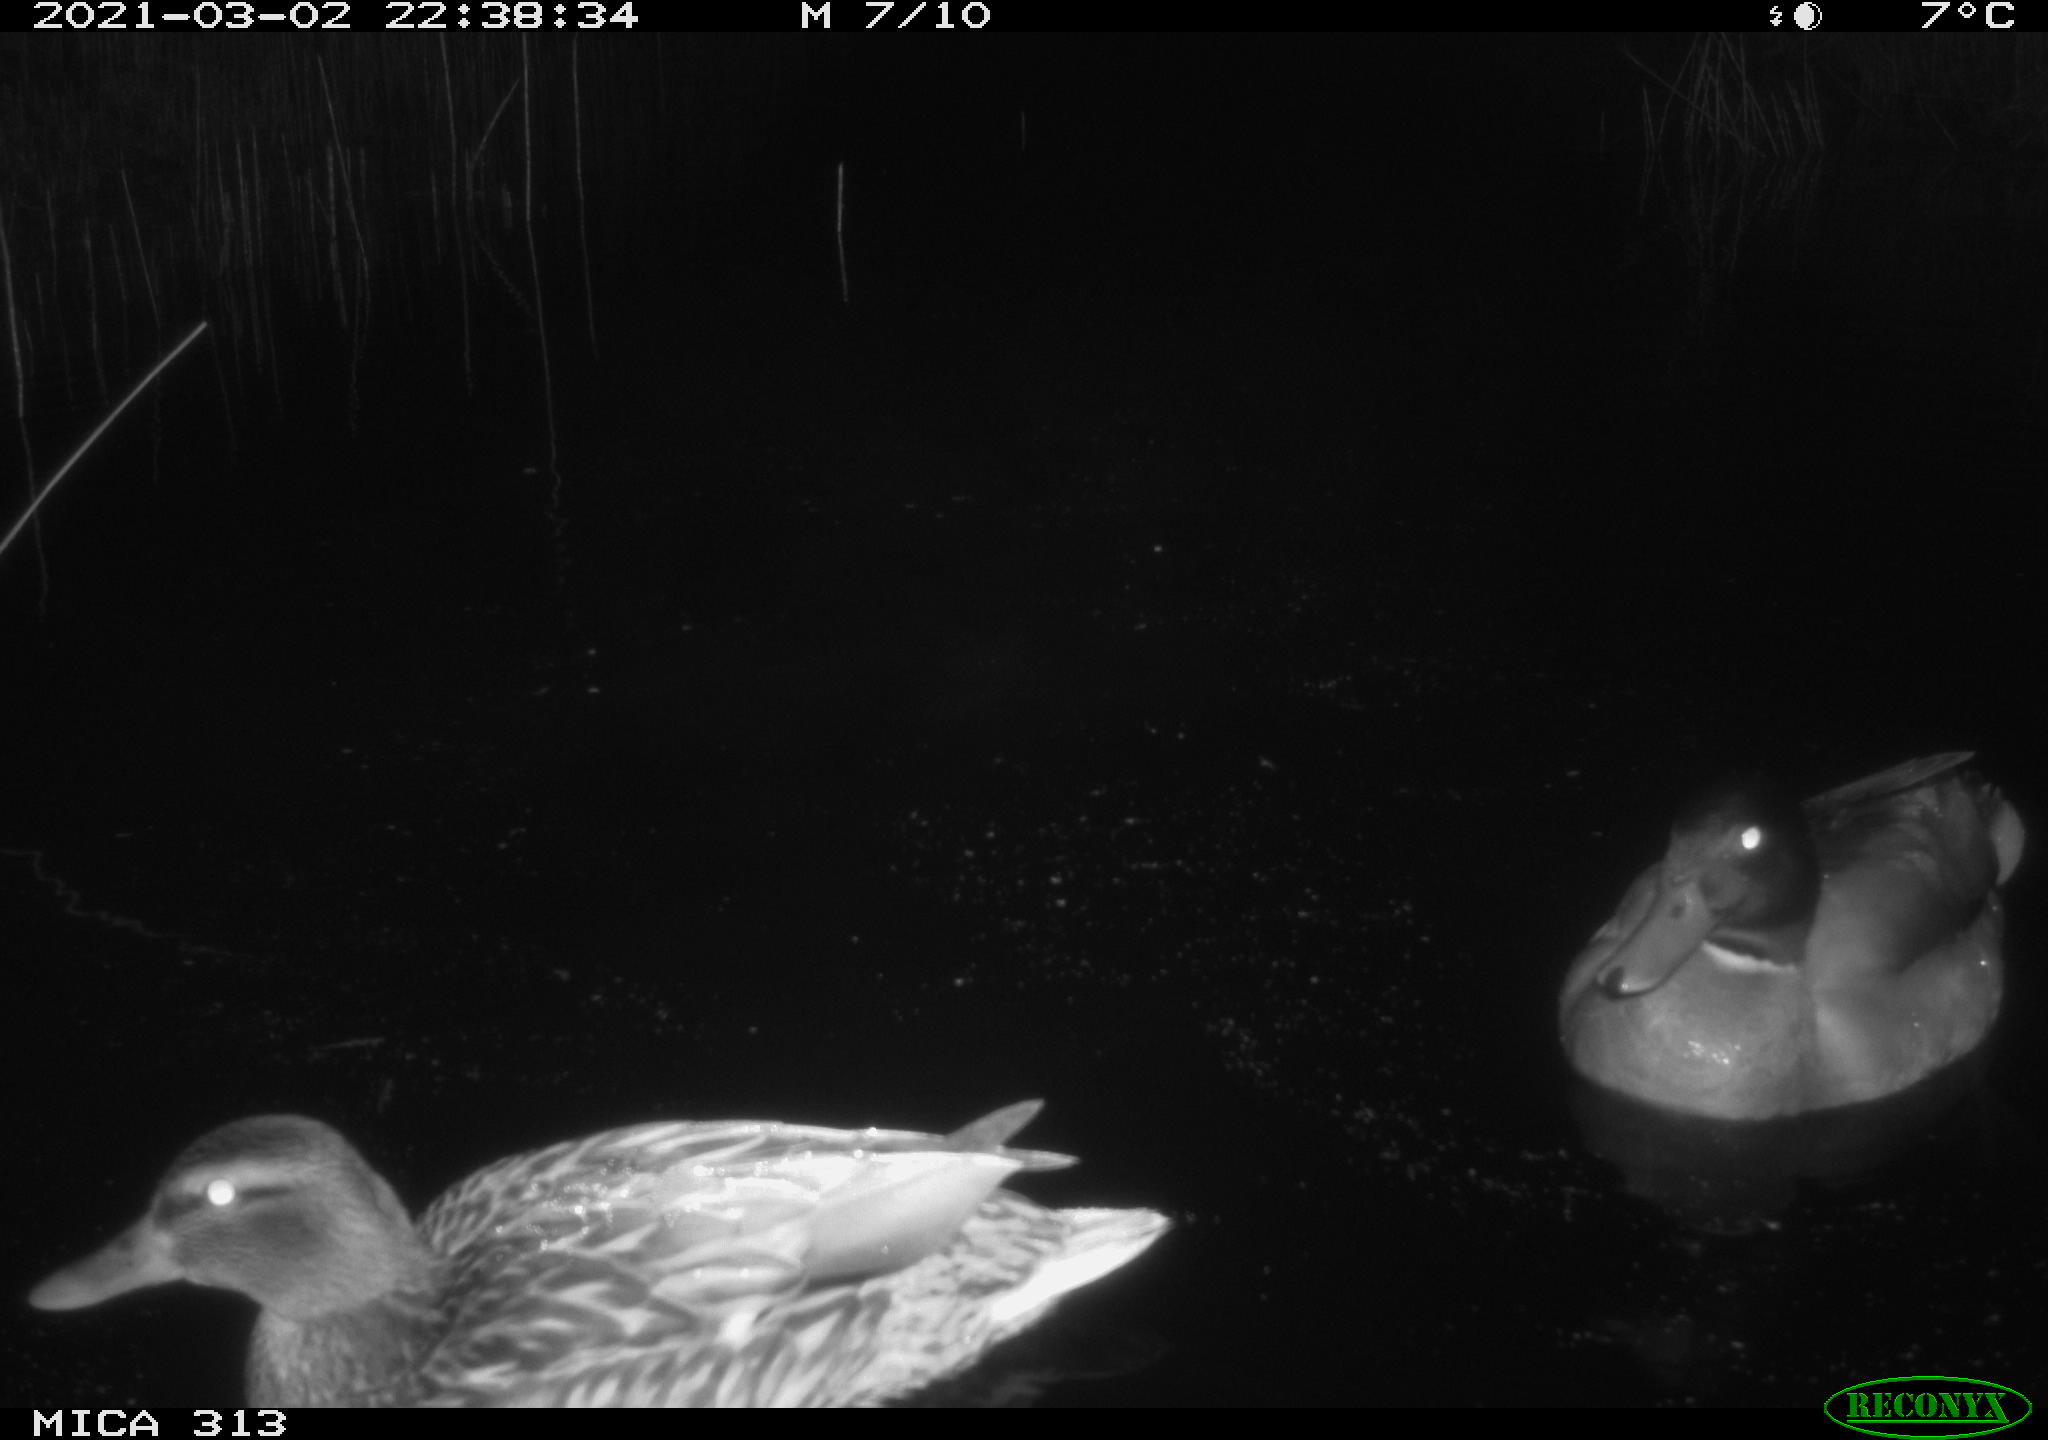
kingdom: Animalia
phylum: Chordata
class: Aves
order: Anseriformes
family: Anatidae
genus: Anas
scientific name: Anas
